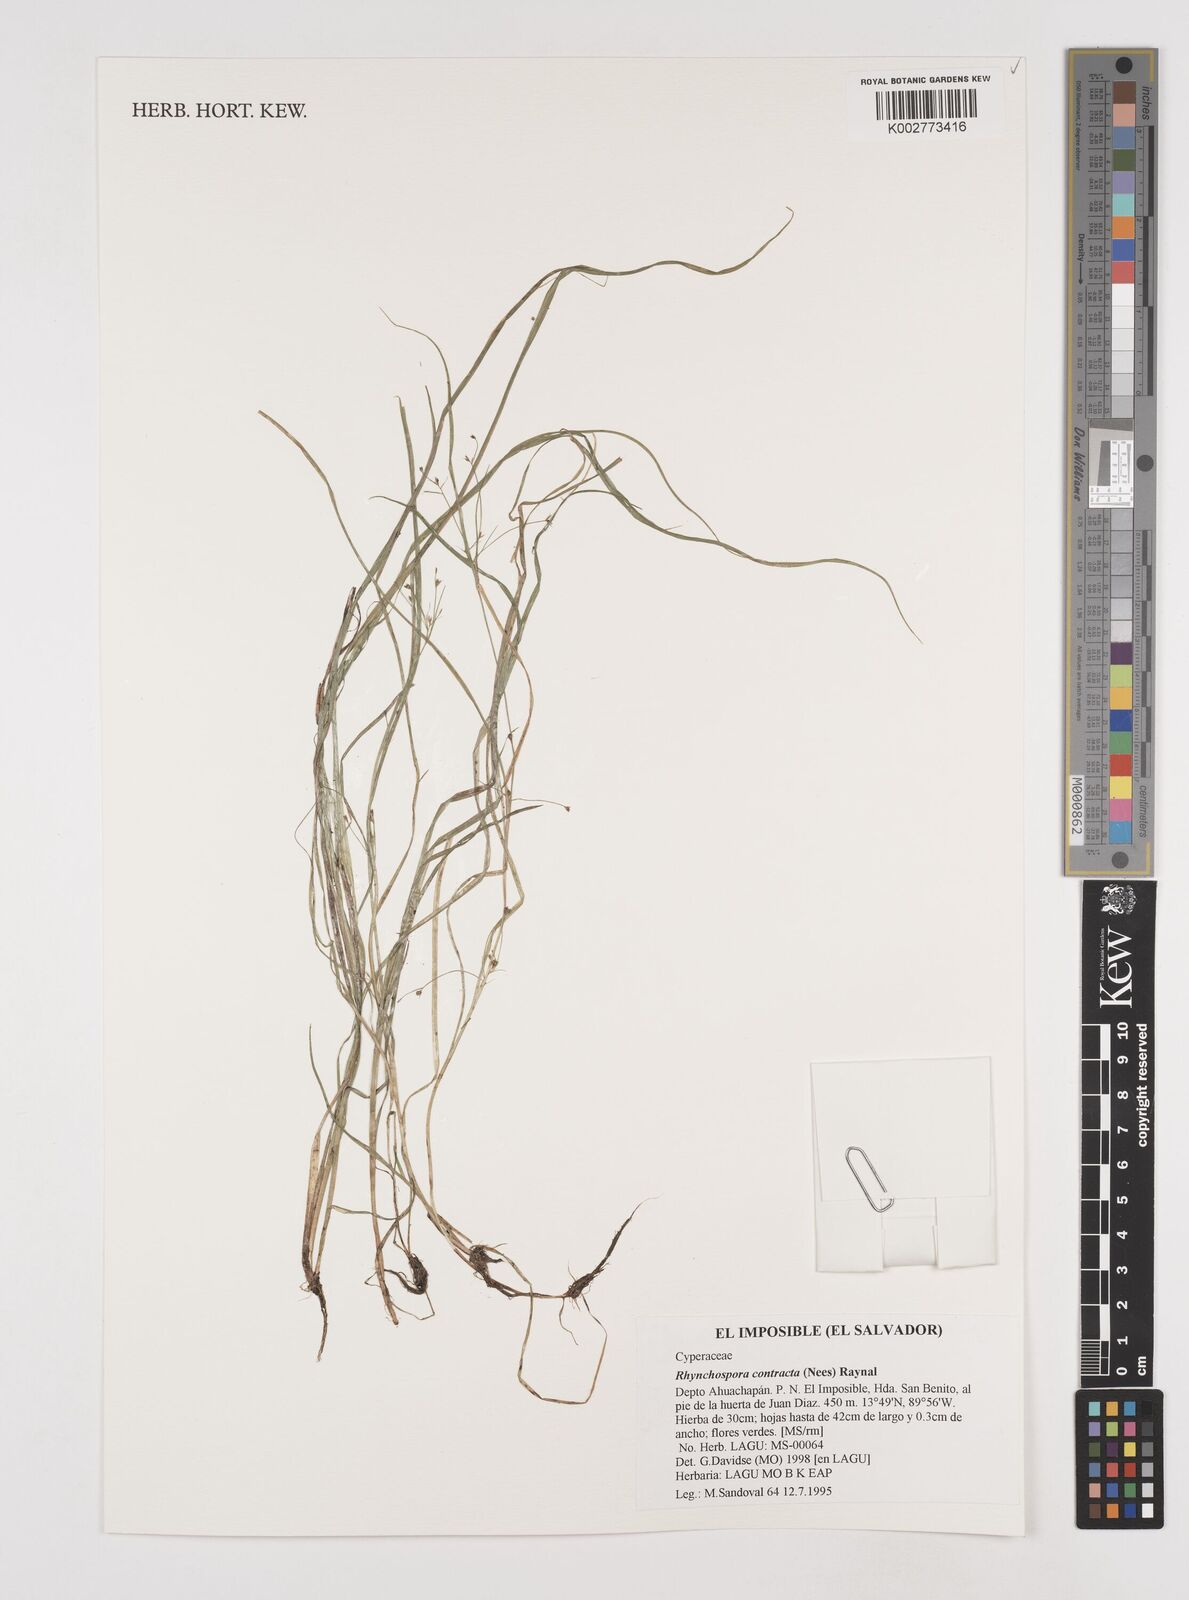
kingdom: Plantae
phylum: Tracheophyta
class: Liliopsida
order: Poales
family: Cyperaceae
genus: Rhynchospora
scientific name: Rhynchospora contracta
